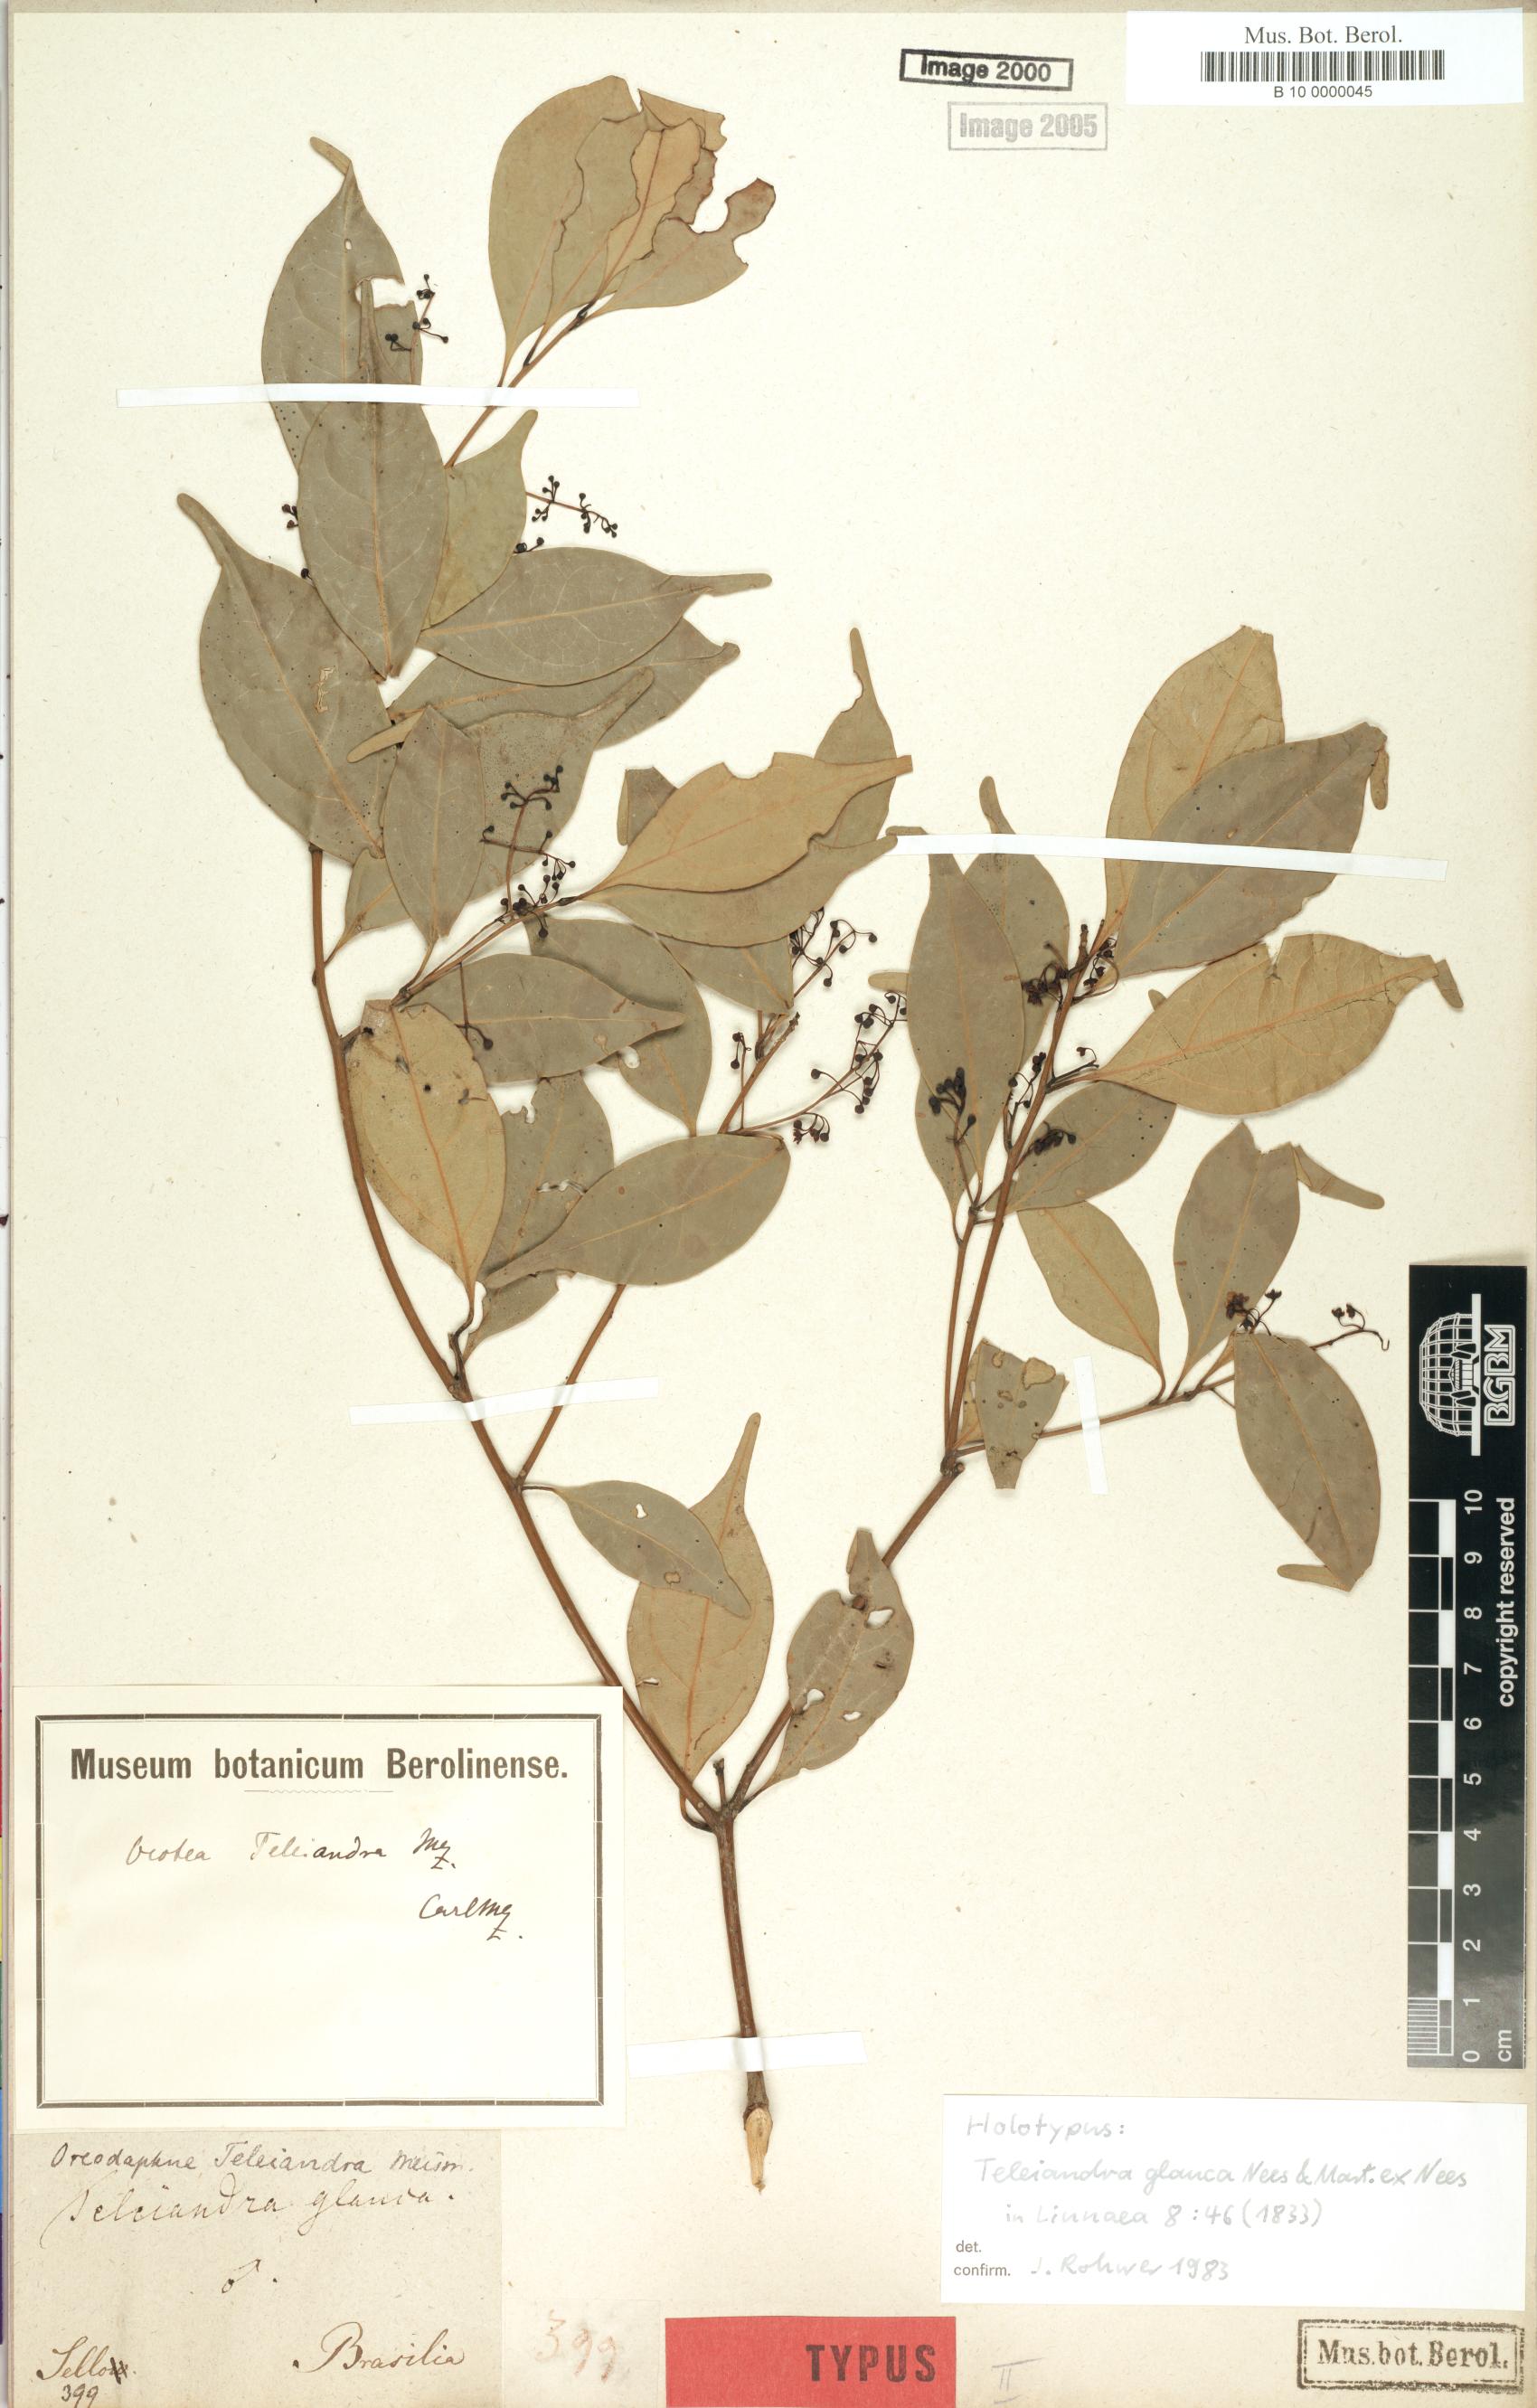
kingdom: Plantae
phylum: Tracheophyta
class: Magnoliopsida
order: Laurales
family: Lauraceae
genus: Ocotea
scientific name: Ocotea teleiandra
